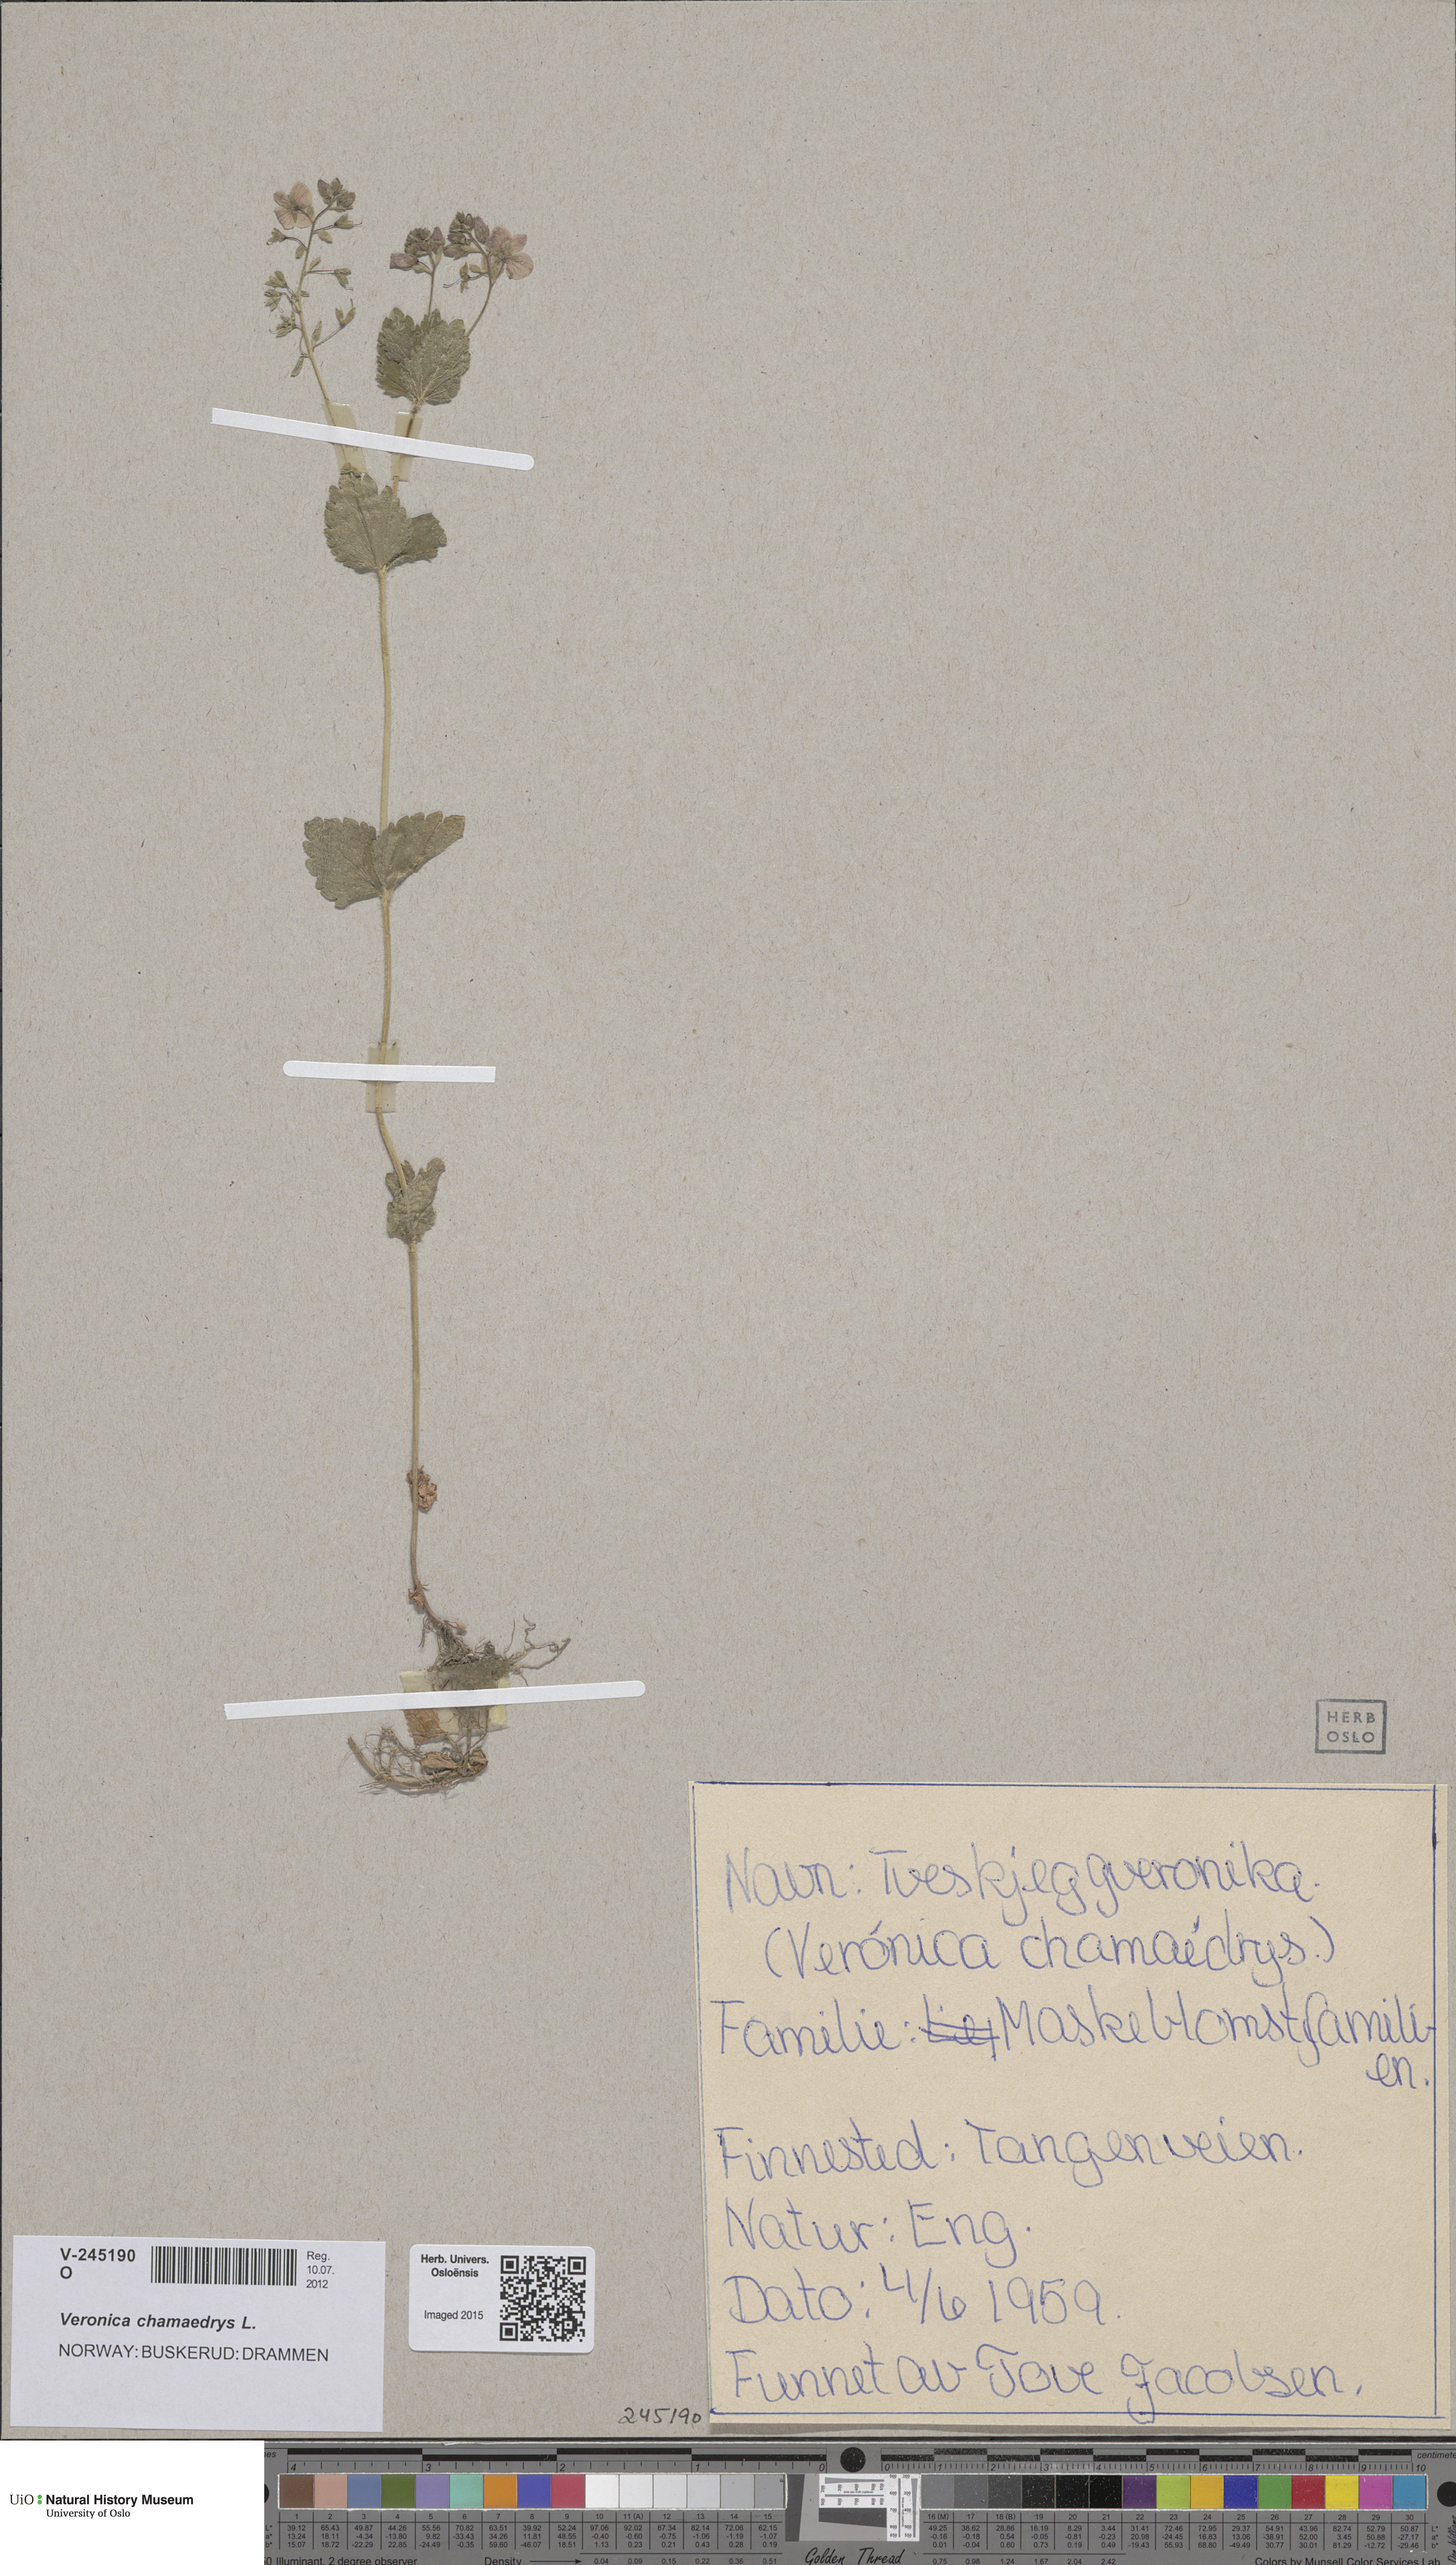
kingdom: Plantae
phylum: Tracheophyta
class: Magnoliopsida
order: Lamiales
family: Plantaginaceae
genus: Veronica
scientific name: Veronica chamaedrys
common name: Germander speedwell
